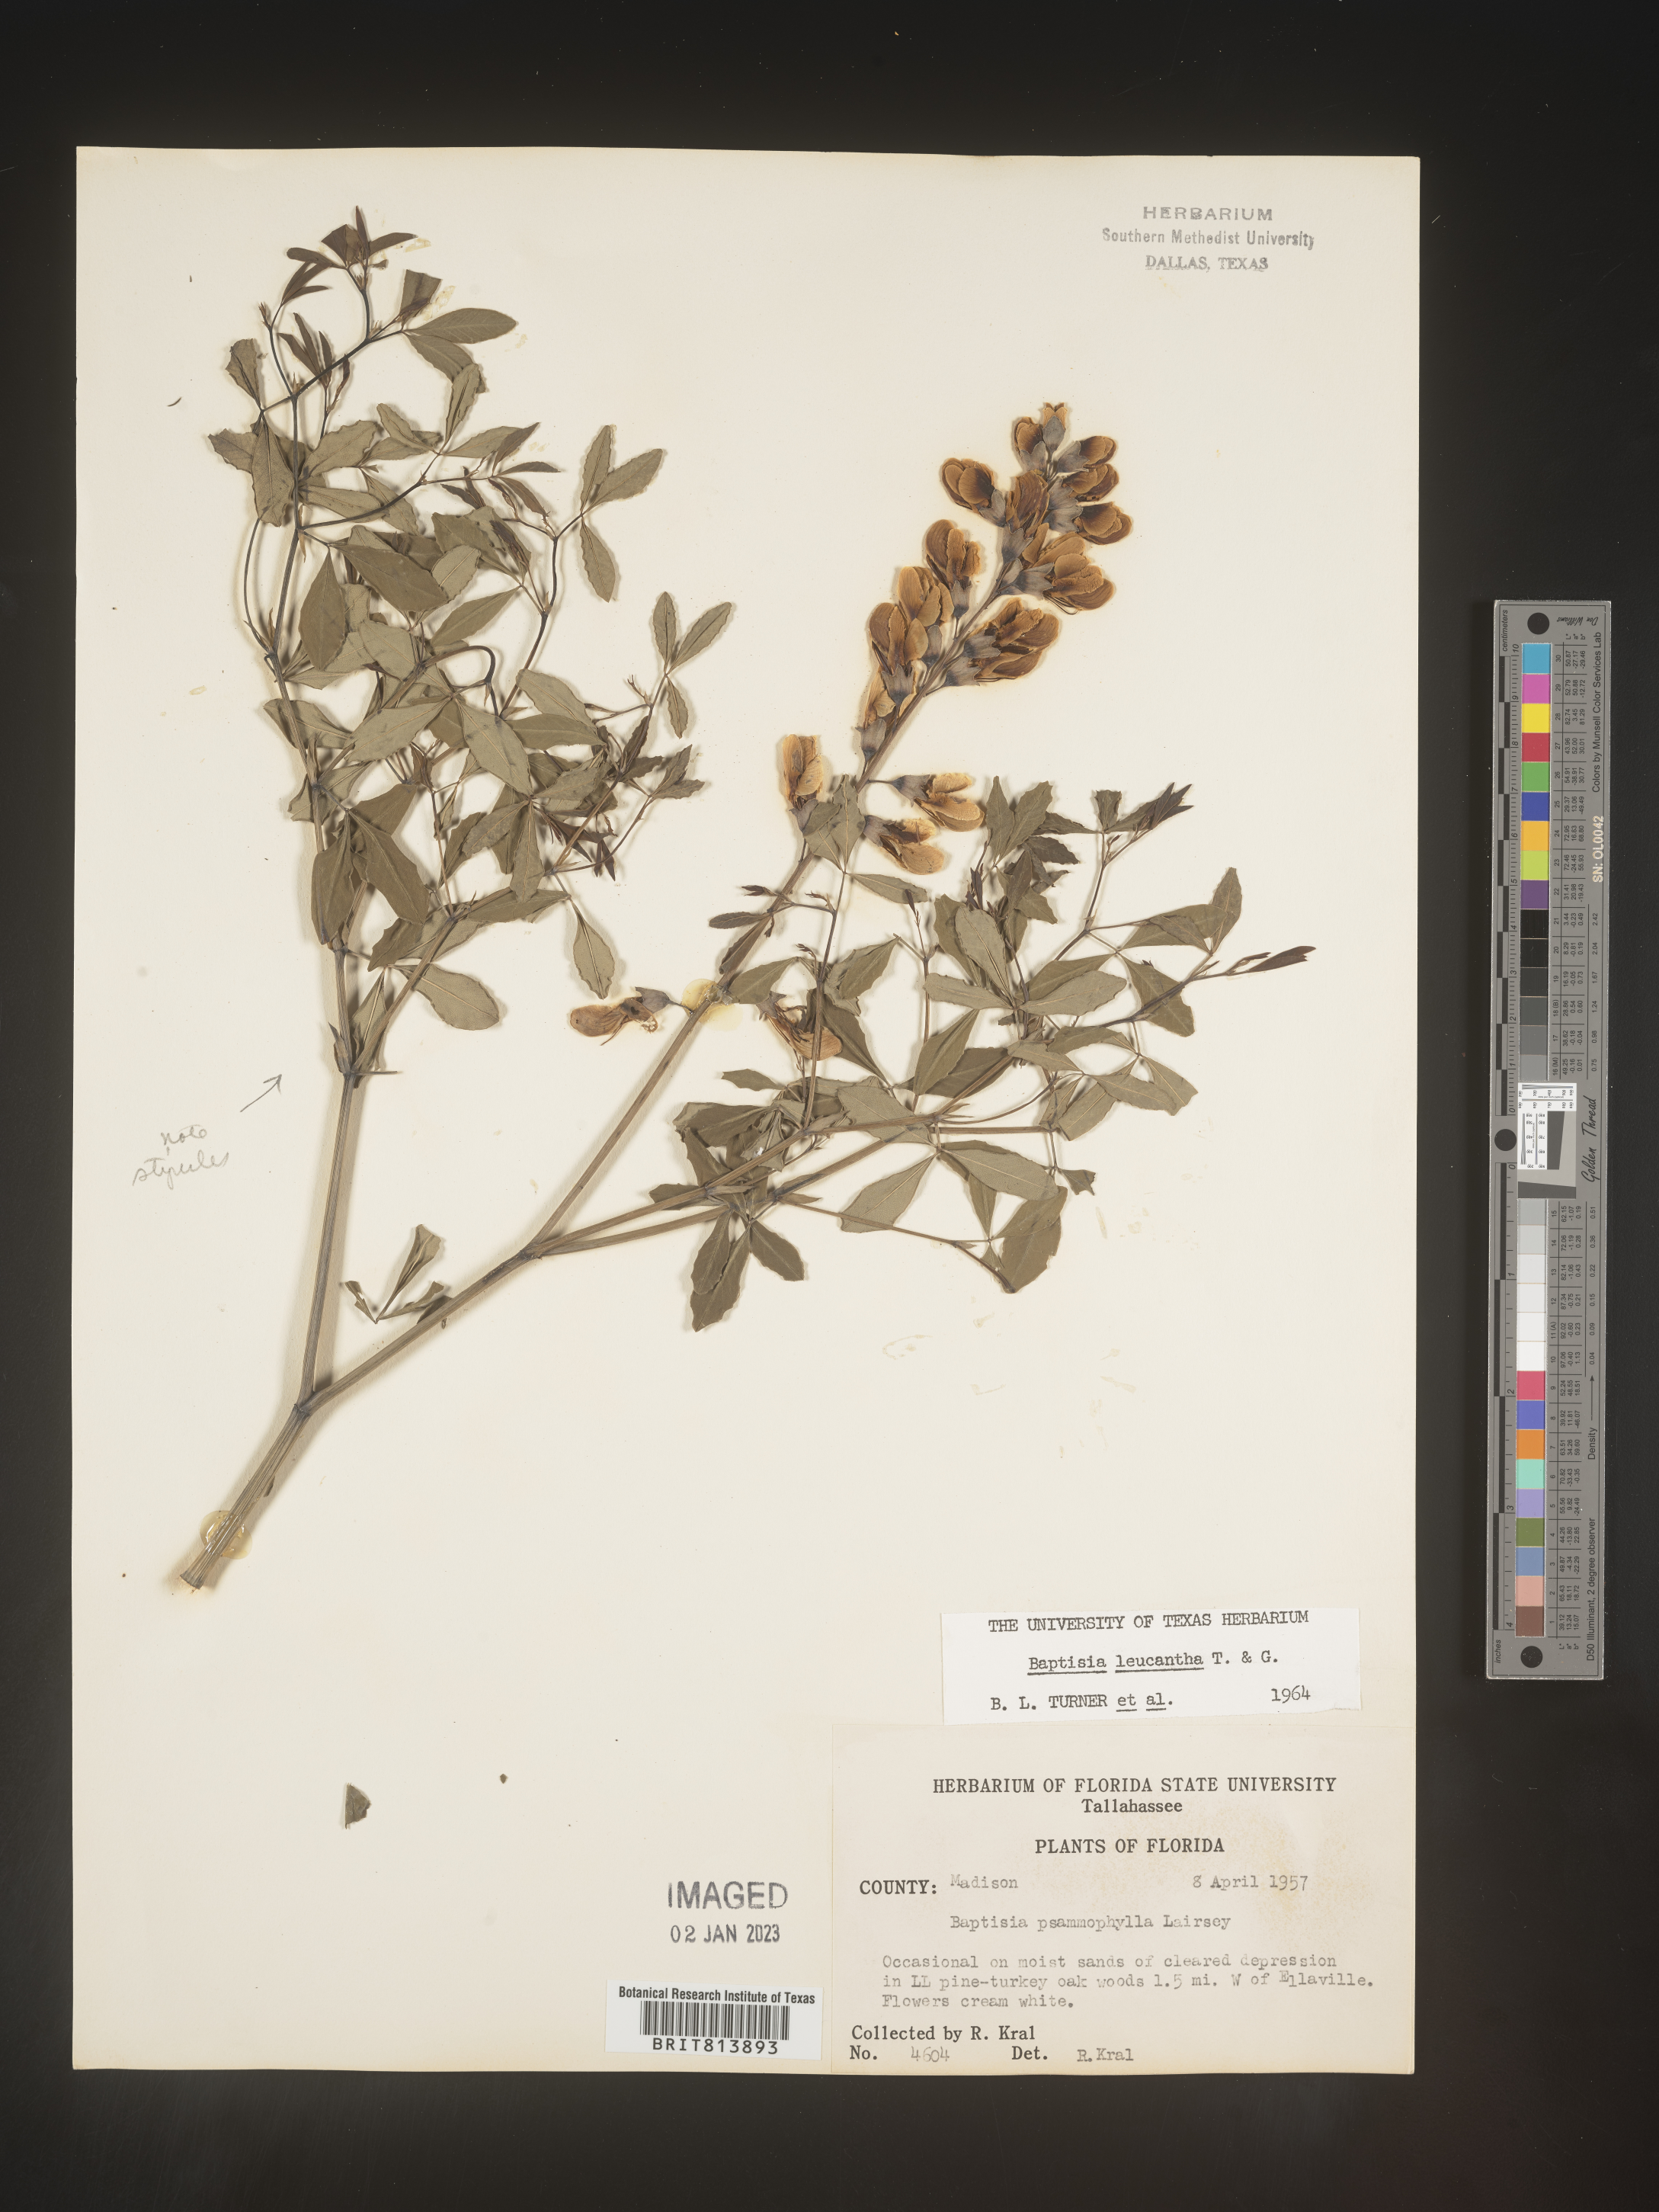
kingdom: Plantae
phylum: Tracheophyta
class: Magnoliopsida
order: Fabales
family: Fabaceae
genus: Baptisia
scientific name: Baptisia alba
